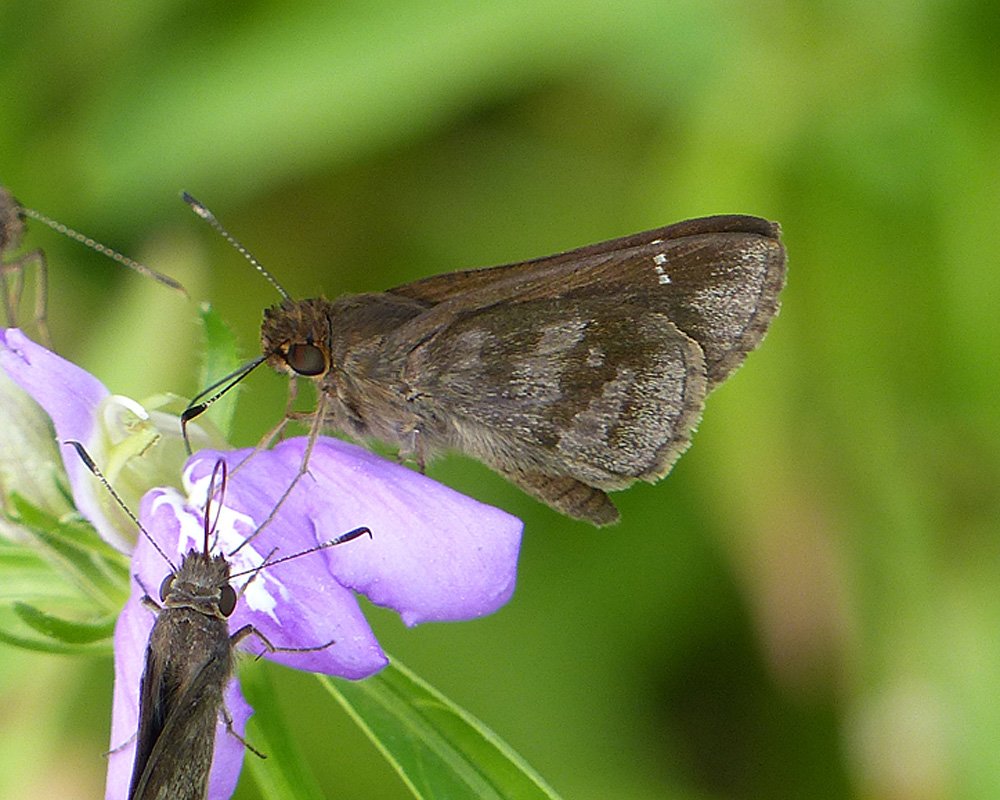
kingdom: Animalia
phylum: Arthropoda
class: Insecta
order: Lepidoptera
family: Hesperiidae
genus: Cymaenes
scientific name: Cymaenes odilia
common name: Fawn-spotted Skipper
